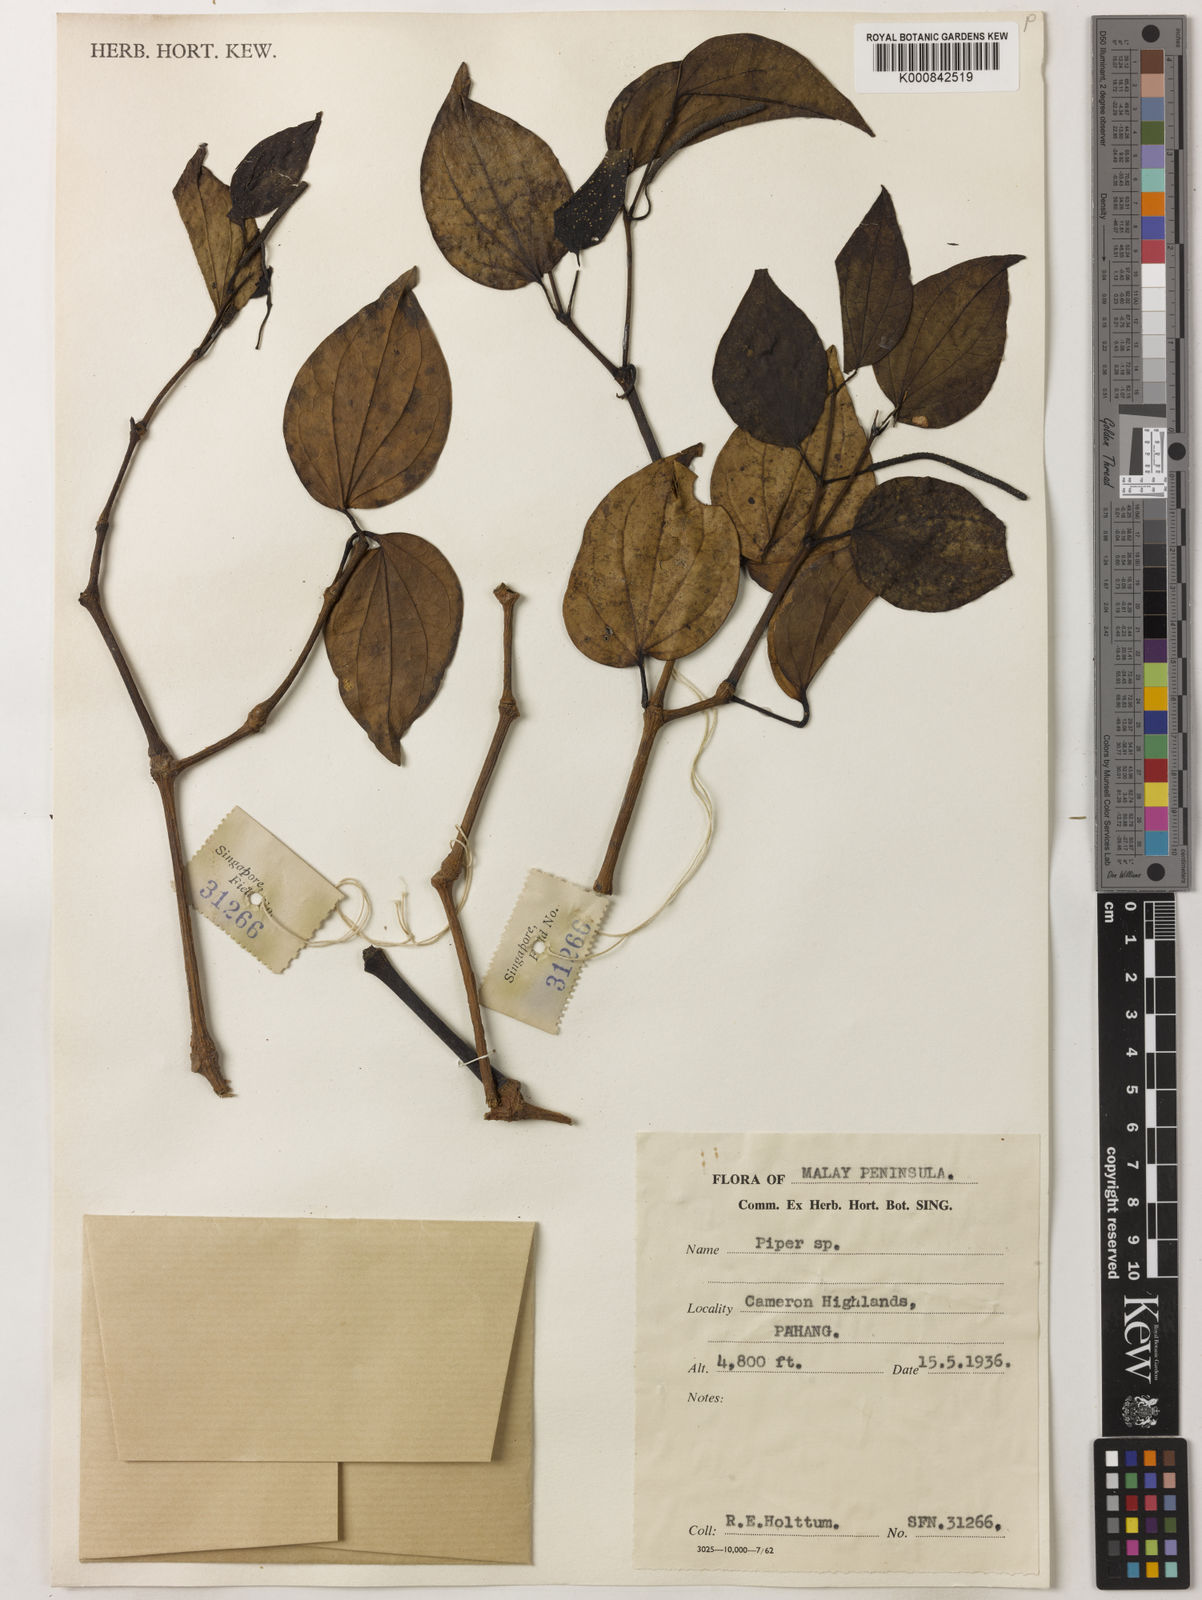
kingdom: Plantae
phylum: Tracheophyta
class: Magnoliopsida
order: Piperales
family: Piperaceae
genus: Piper
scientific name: Piper
